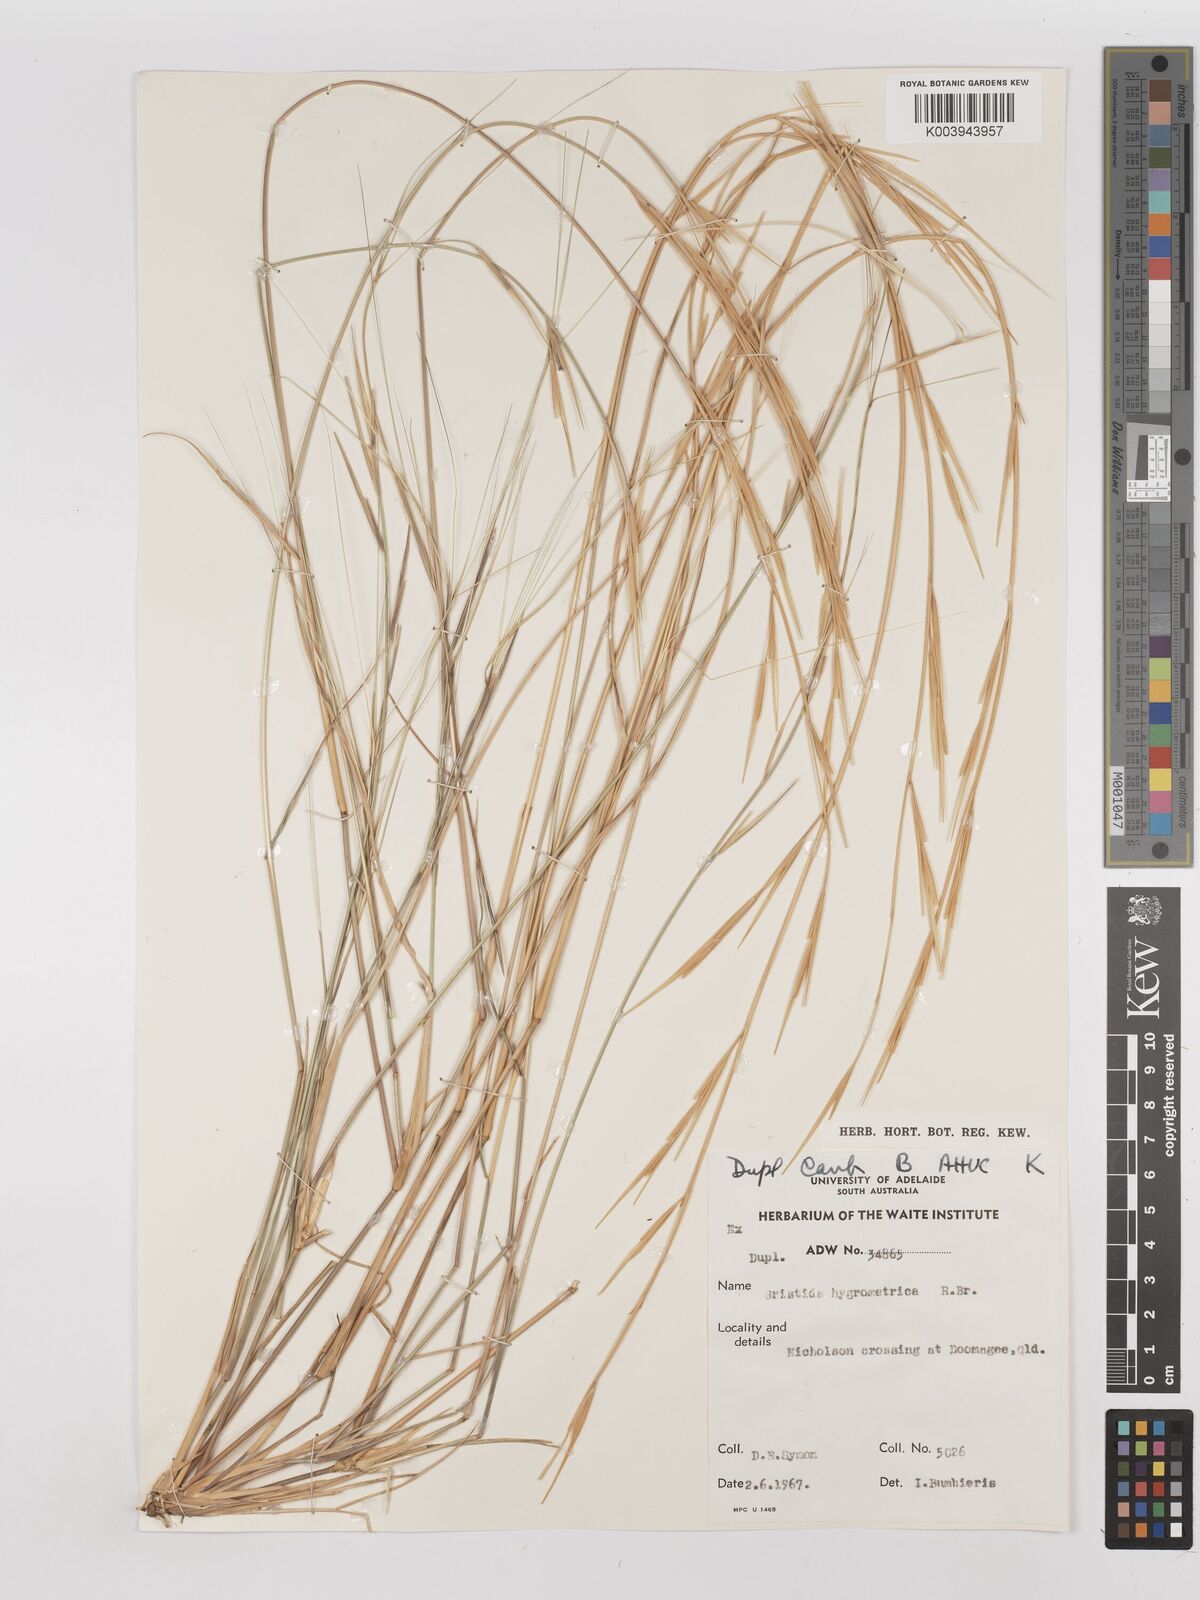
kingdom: Plantae
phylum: Tracheophyta
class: Liliopsida
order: Poales
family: Poaceae
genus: Aristida
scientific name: Aristida hygrometrica
